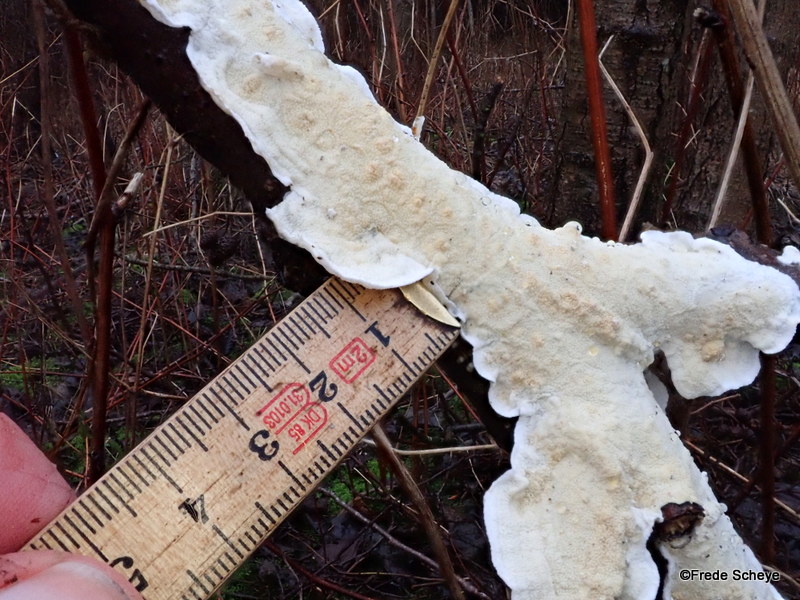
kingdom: Fungi
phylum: Basidiomycota
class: Agaricomycetes
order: Polyporales
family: Irpicaceae
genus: Byssomerulius
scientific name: Byssomerulius corium
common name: læder-åresvamp
